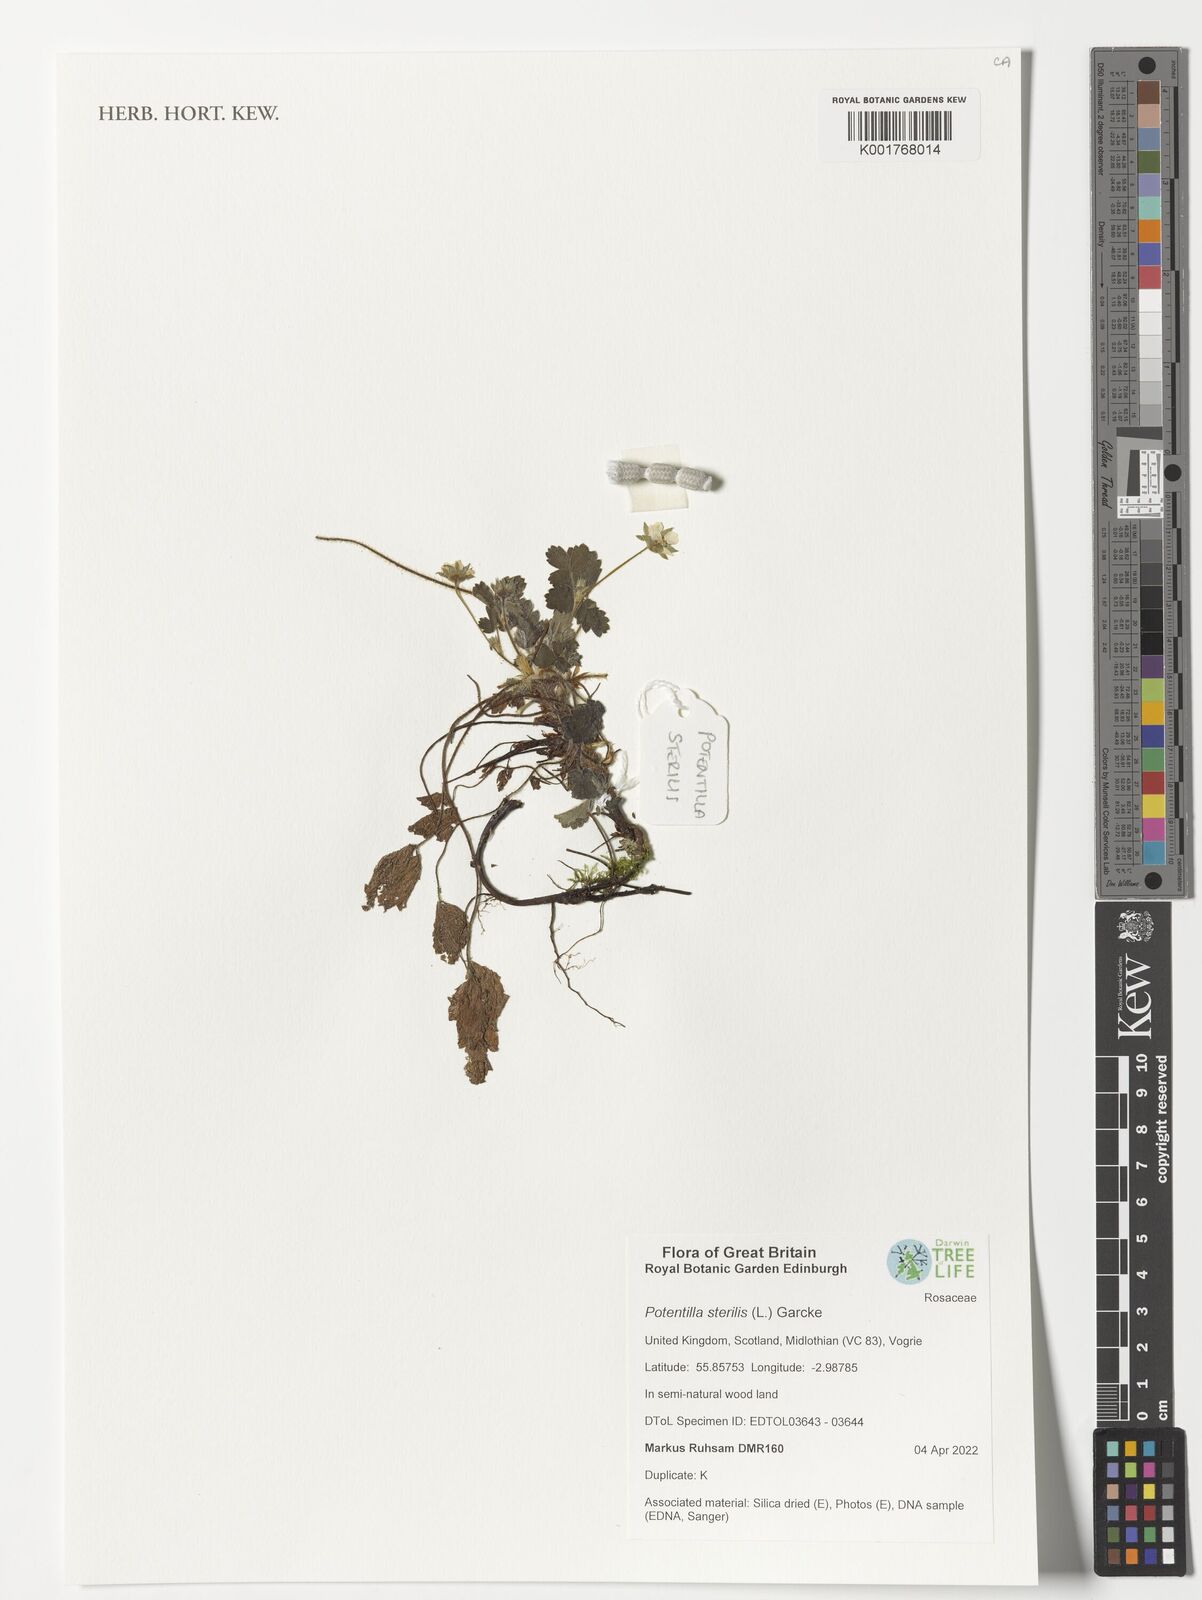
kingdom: Plantae
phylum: Tracheophyta
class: Magnoliopsida
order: Rosales
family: Rosaceae
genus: Potentilla
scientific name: Potentilla sterilis
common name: Barren strawberry
